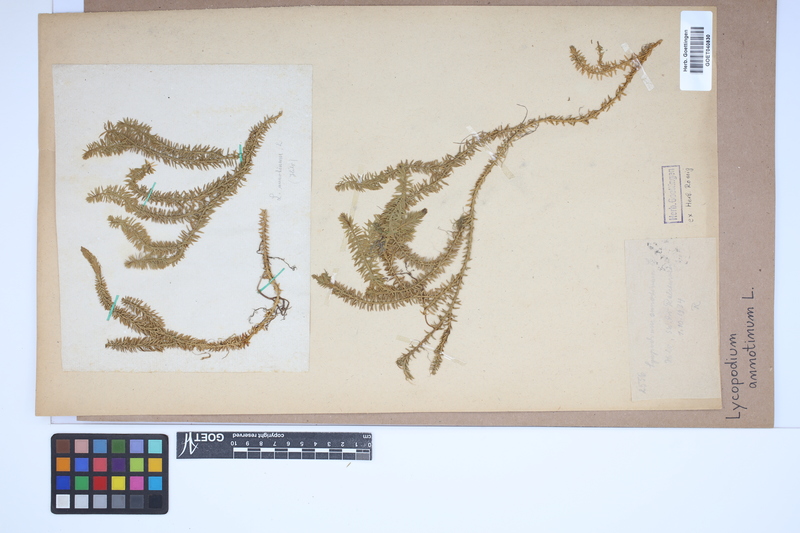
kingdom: Plantae
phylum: Tracheophyta
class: Lycopodiopsida
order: Lycopodiales
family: Lycopodiaceae
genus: Spinulum
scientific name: Spinulum annotinum
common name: Interrupted club-moss
